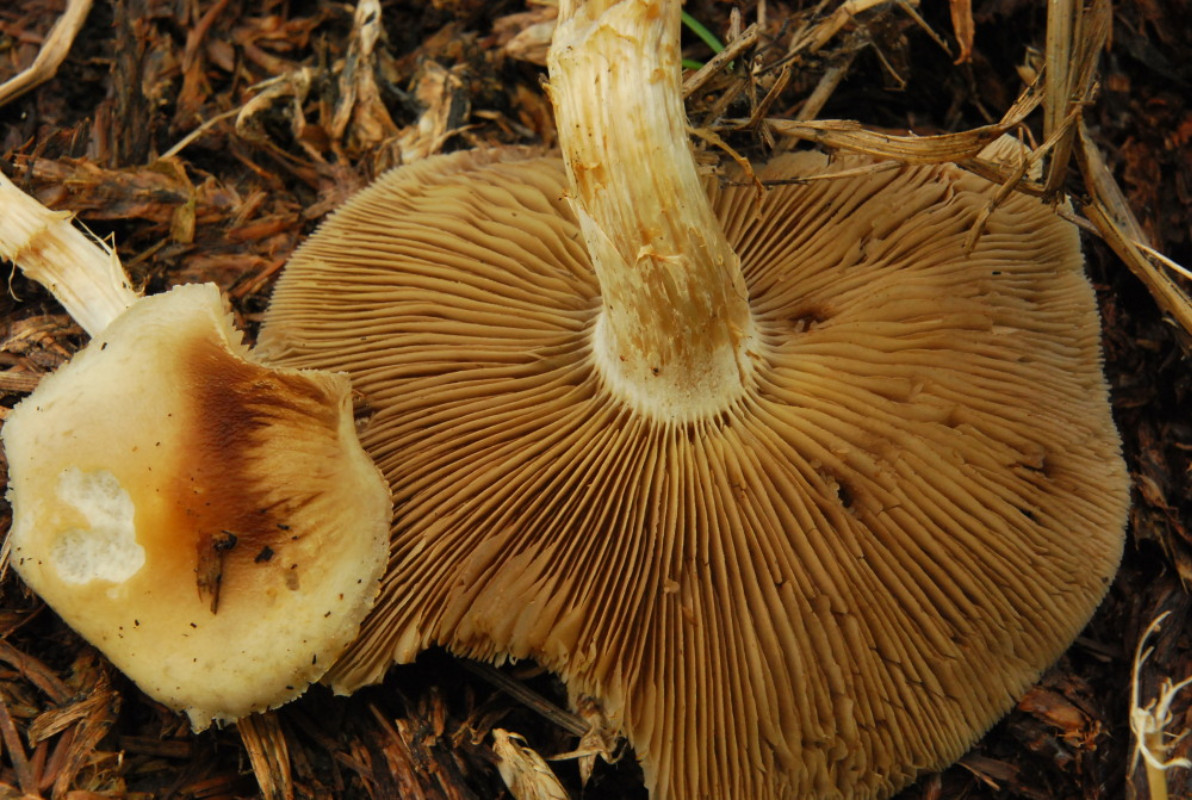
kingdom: Fungi
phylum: Basidiomycota
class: Agaricomycetes
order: Agaricales
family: Strophariaceae
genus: Agrocybe
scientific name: Agrocybe praecox
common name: tidlig agerhat
